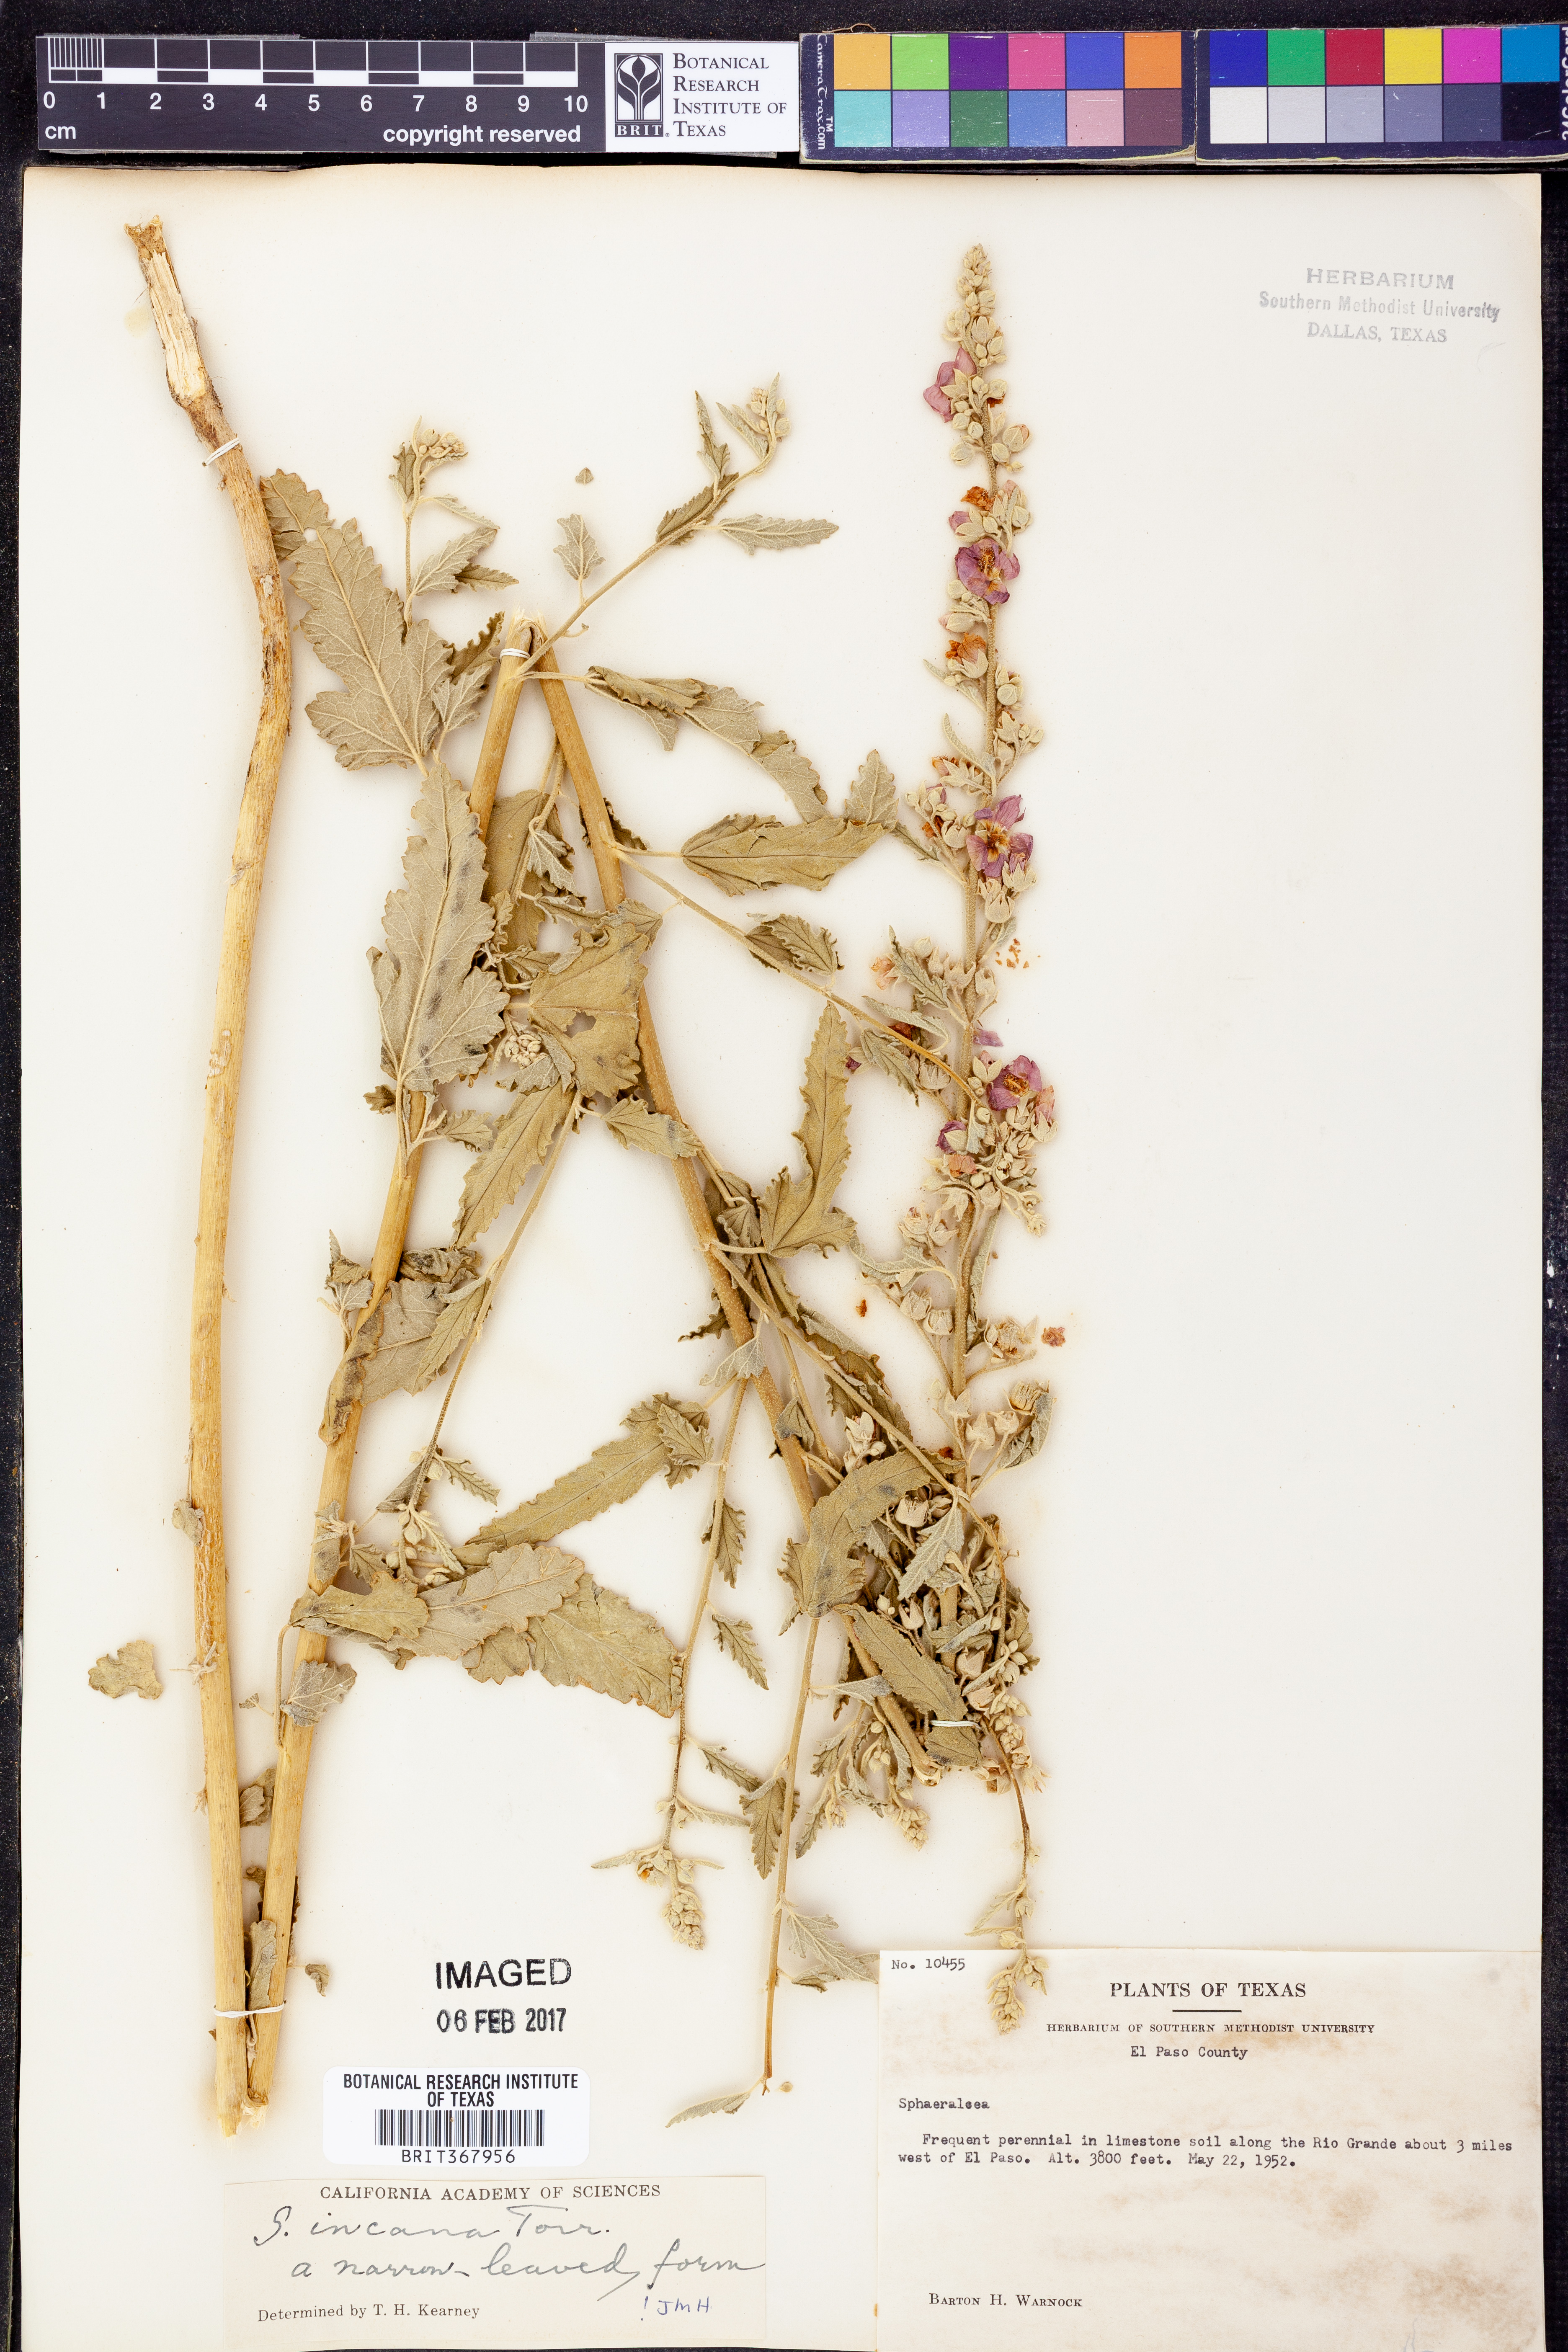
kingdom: Plantae
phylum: Tracheophyta
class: Magnoliopsida
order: Malvales
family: Malvaceae
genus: Sphaeralcea
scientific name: Sphaeralcea incana
